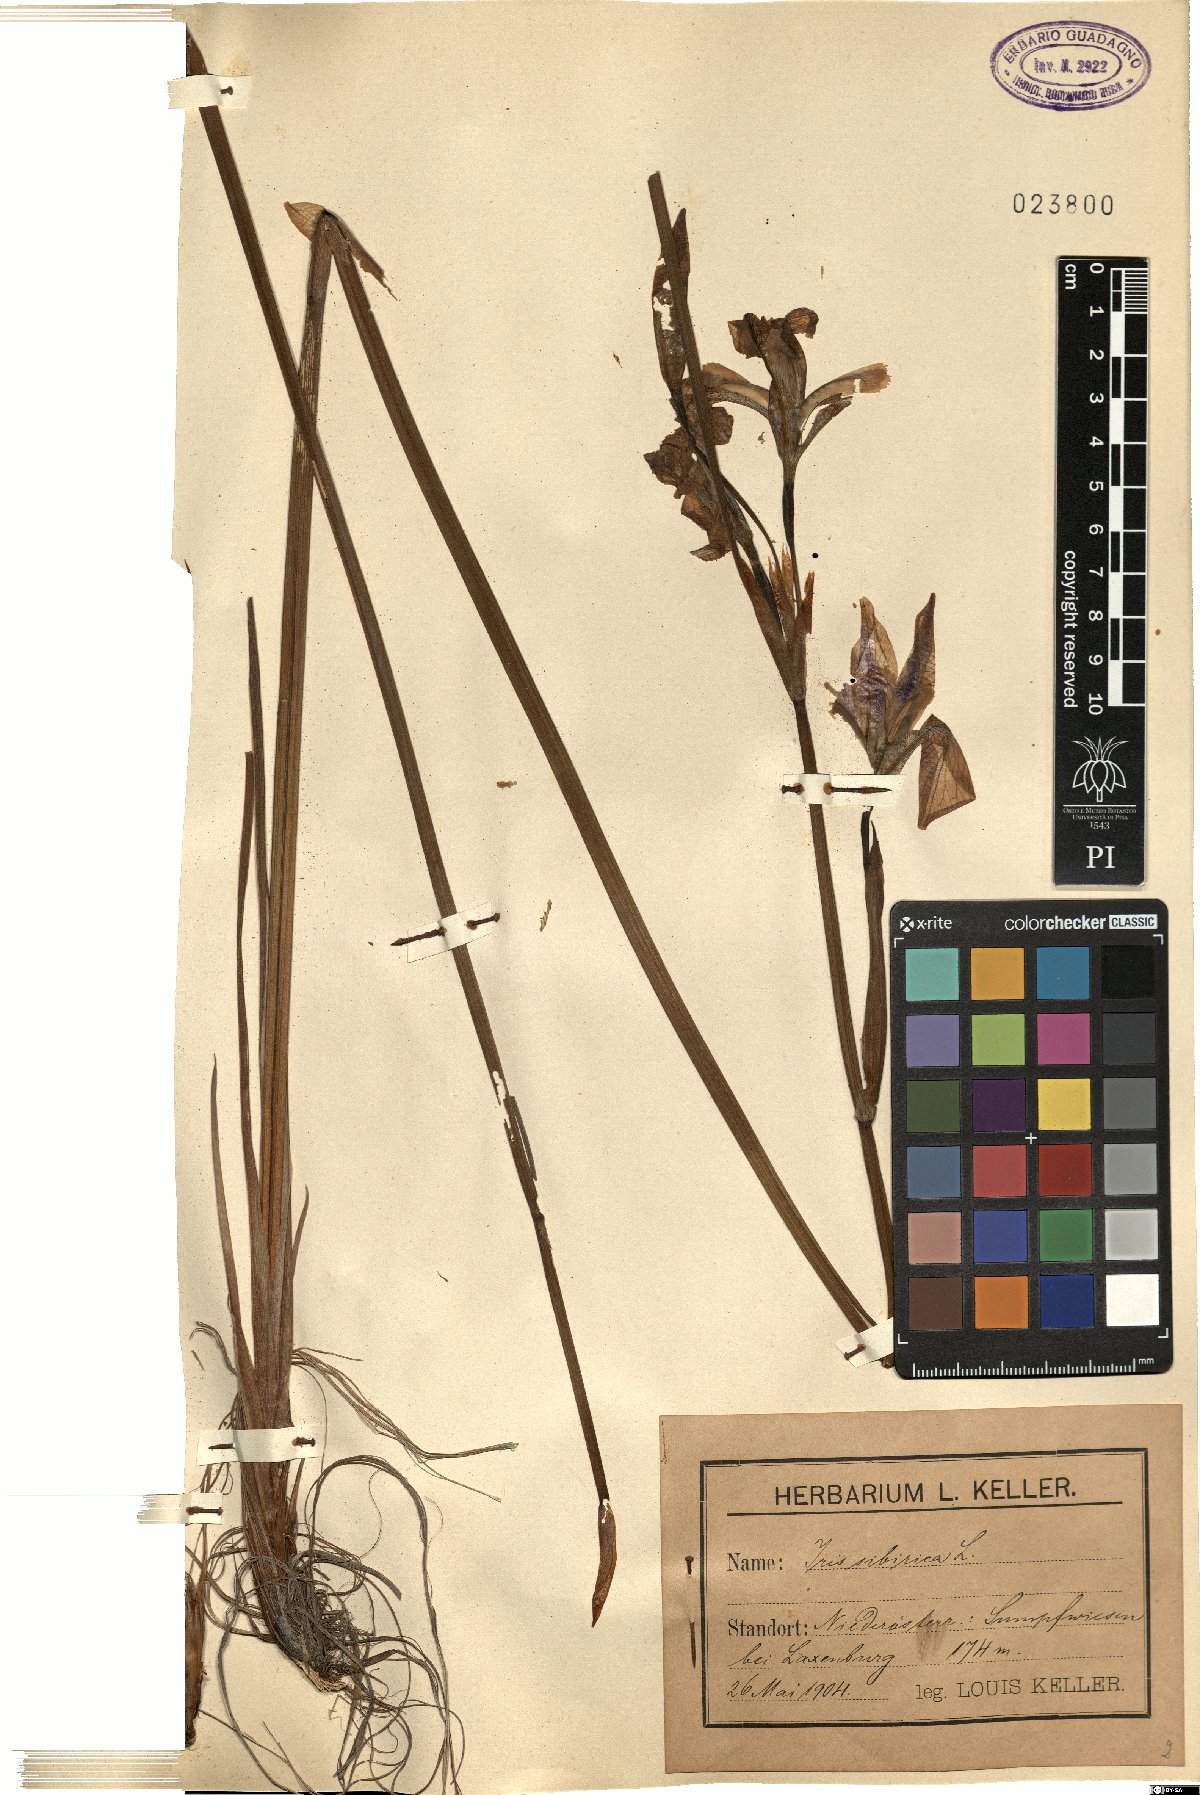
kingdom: Plantae
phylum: Tracheophyta
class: Liliopsida
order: Asparagales
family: Iridaceae
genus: Iris
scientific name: Iris sibirica
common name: Siberian iris
